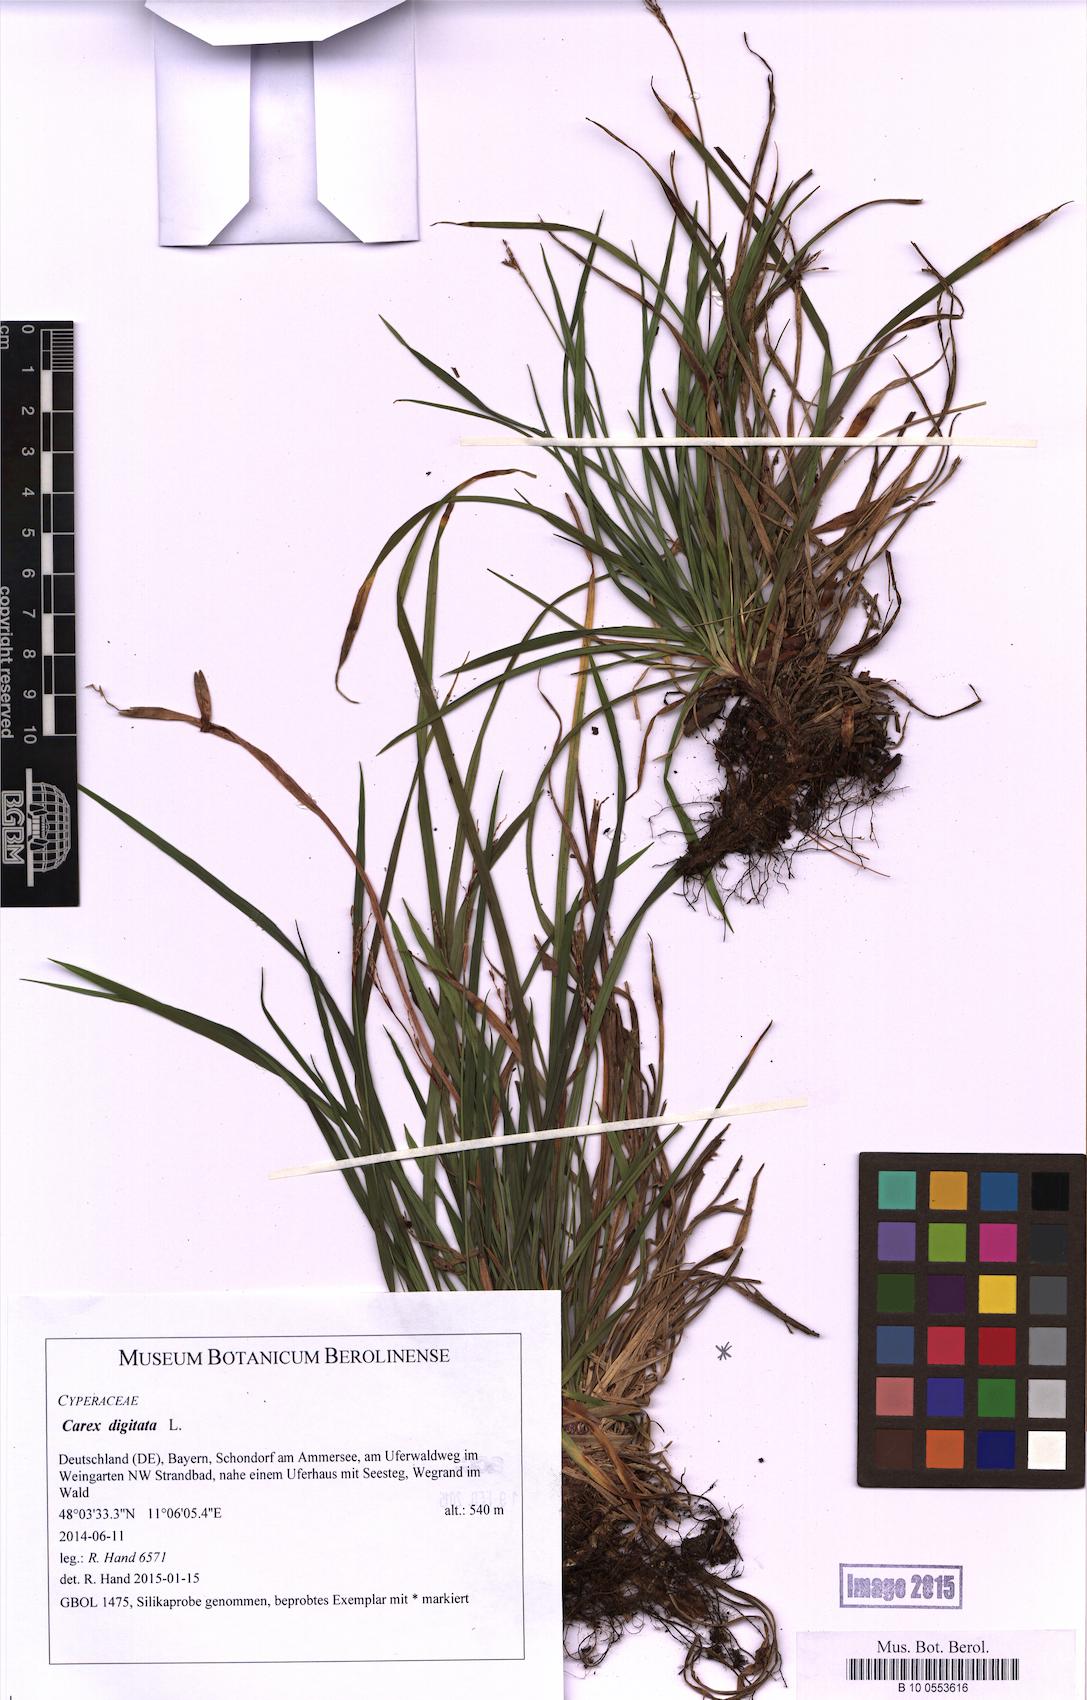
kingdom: Plantae
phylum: Tracheophyta
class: Liliopsida
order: Poales
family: Cyperaceae
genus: Carex
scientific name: Carex digitata
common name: Fingered sedge
